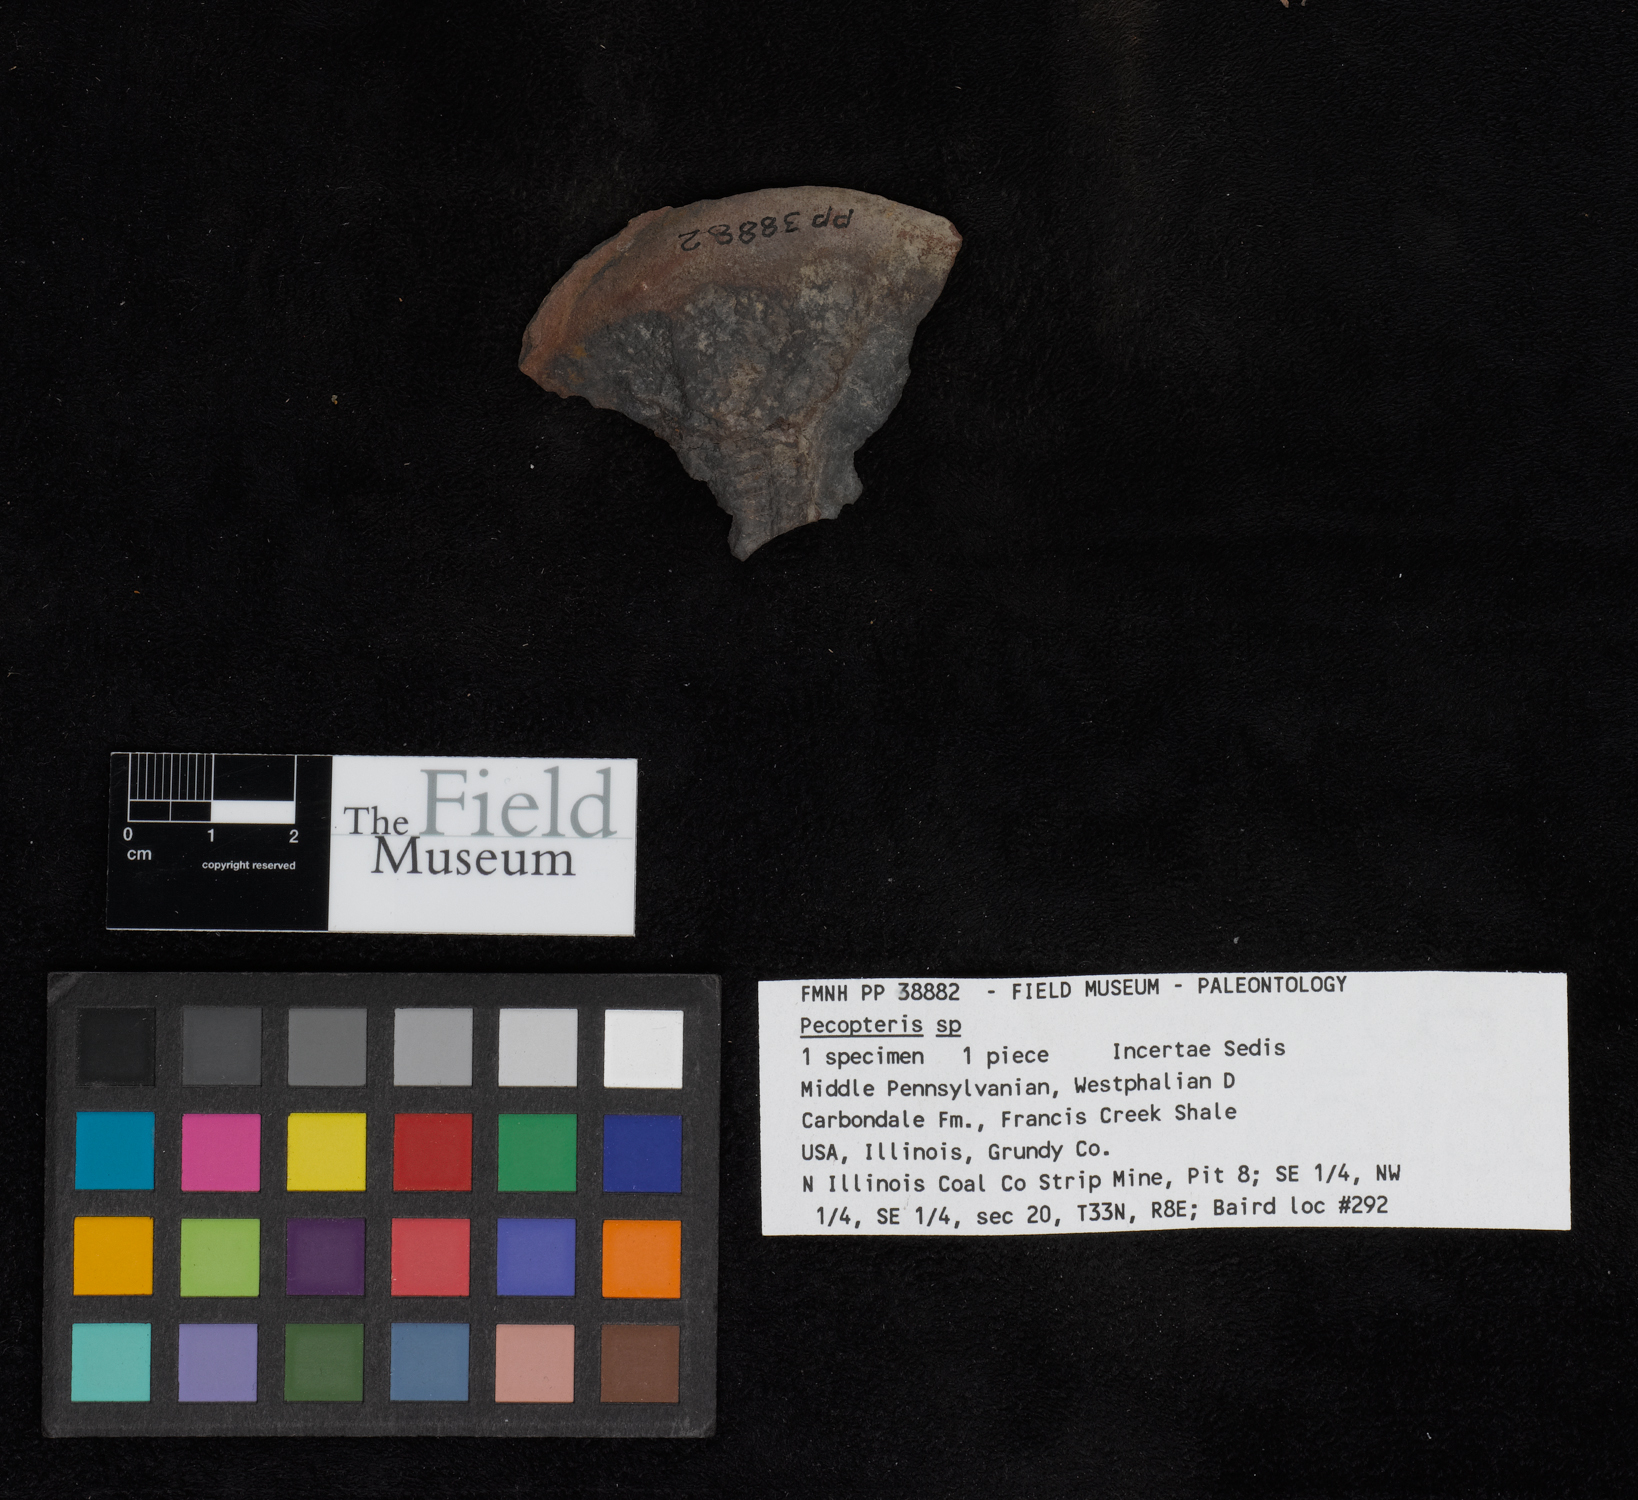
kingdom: Plantae
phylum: Tracheophyta
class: Polypodiopsida
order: Marattiales
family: Asterothecaceae
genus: Pecopteris
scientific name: Pecopteris
